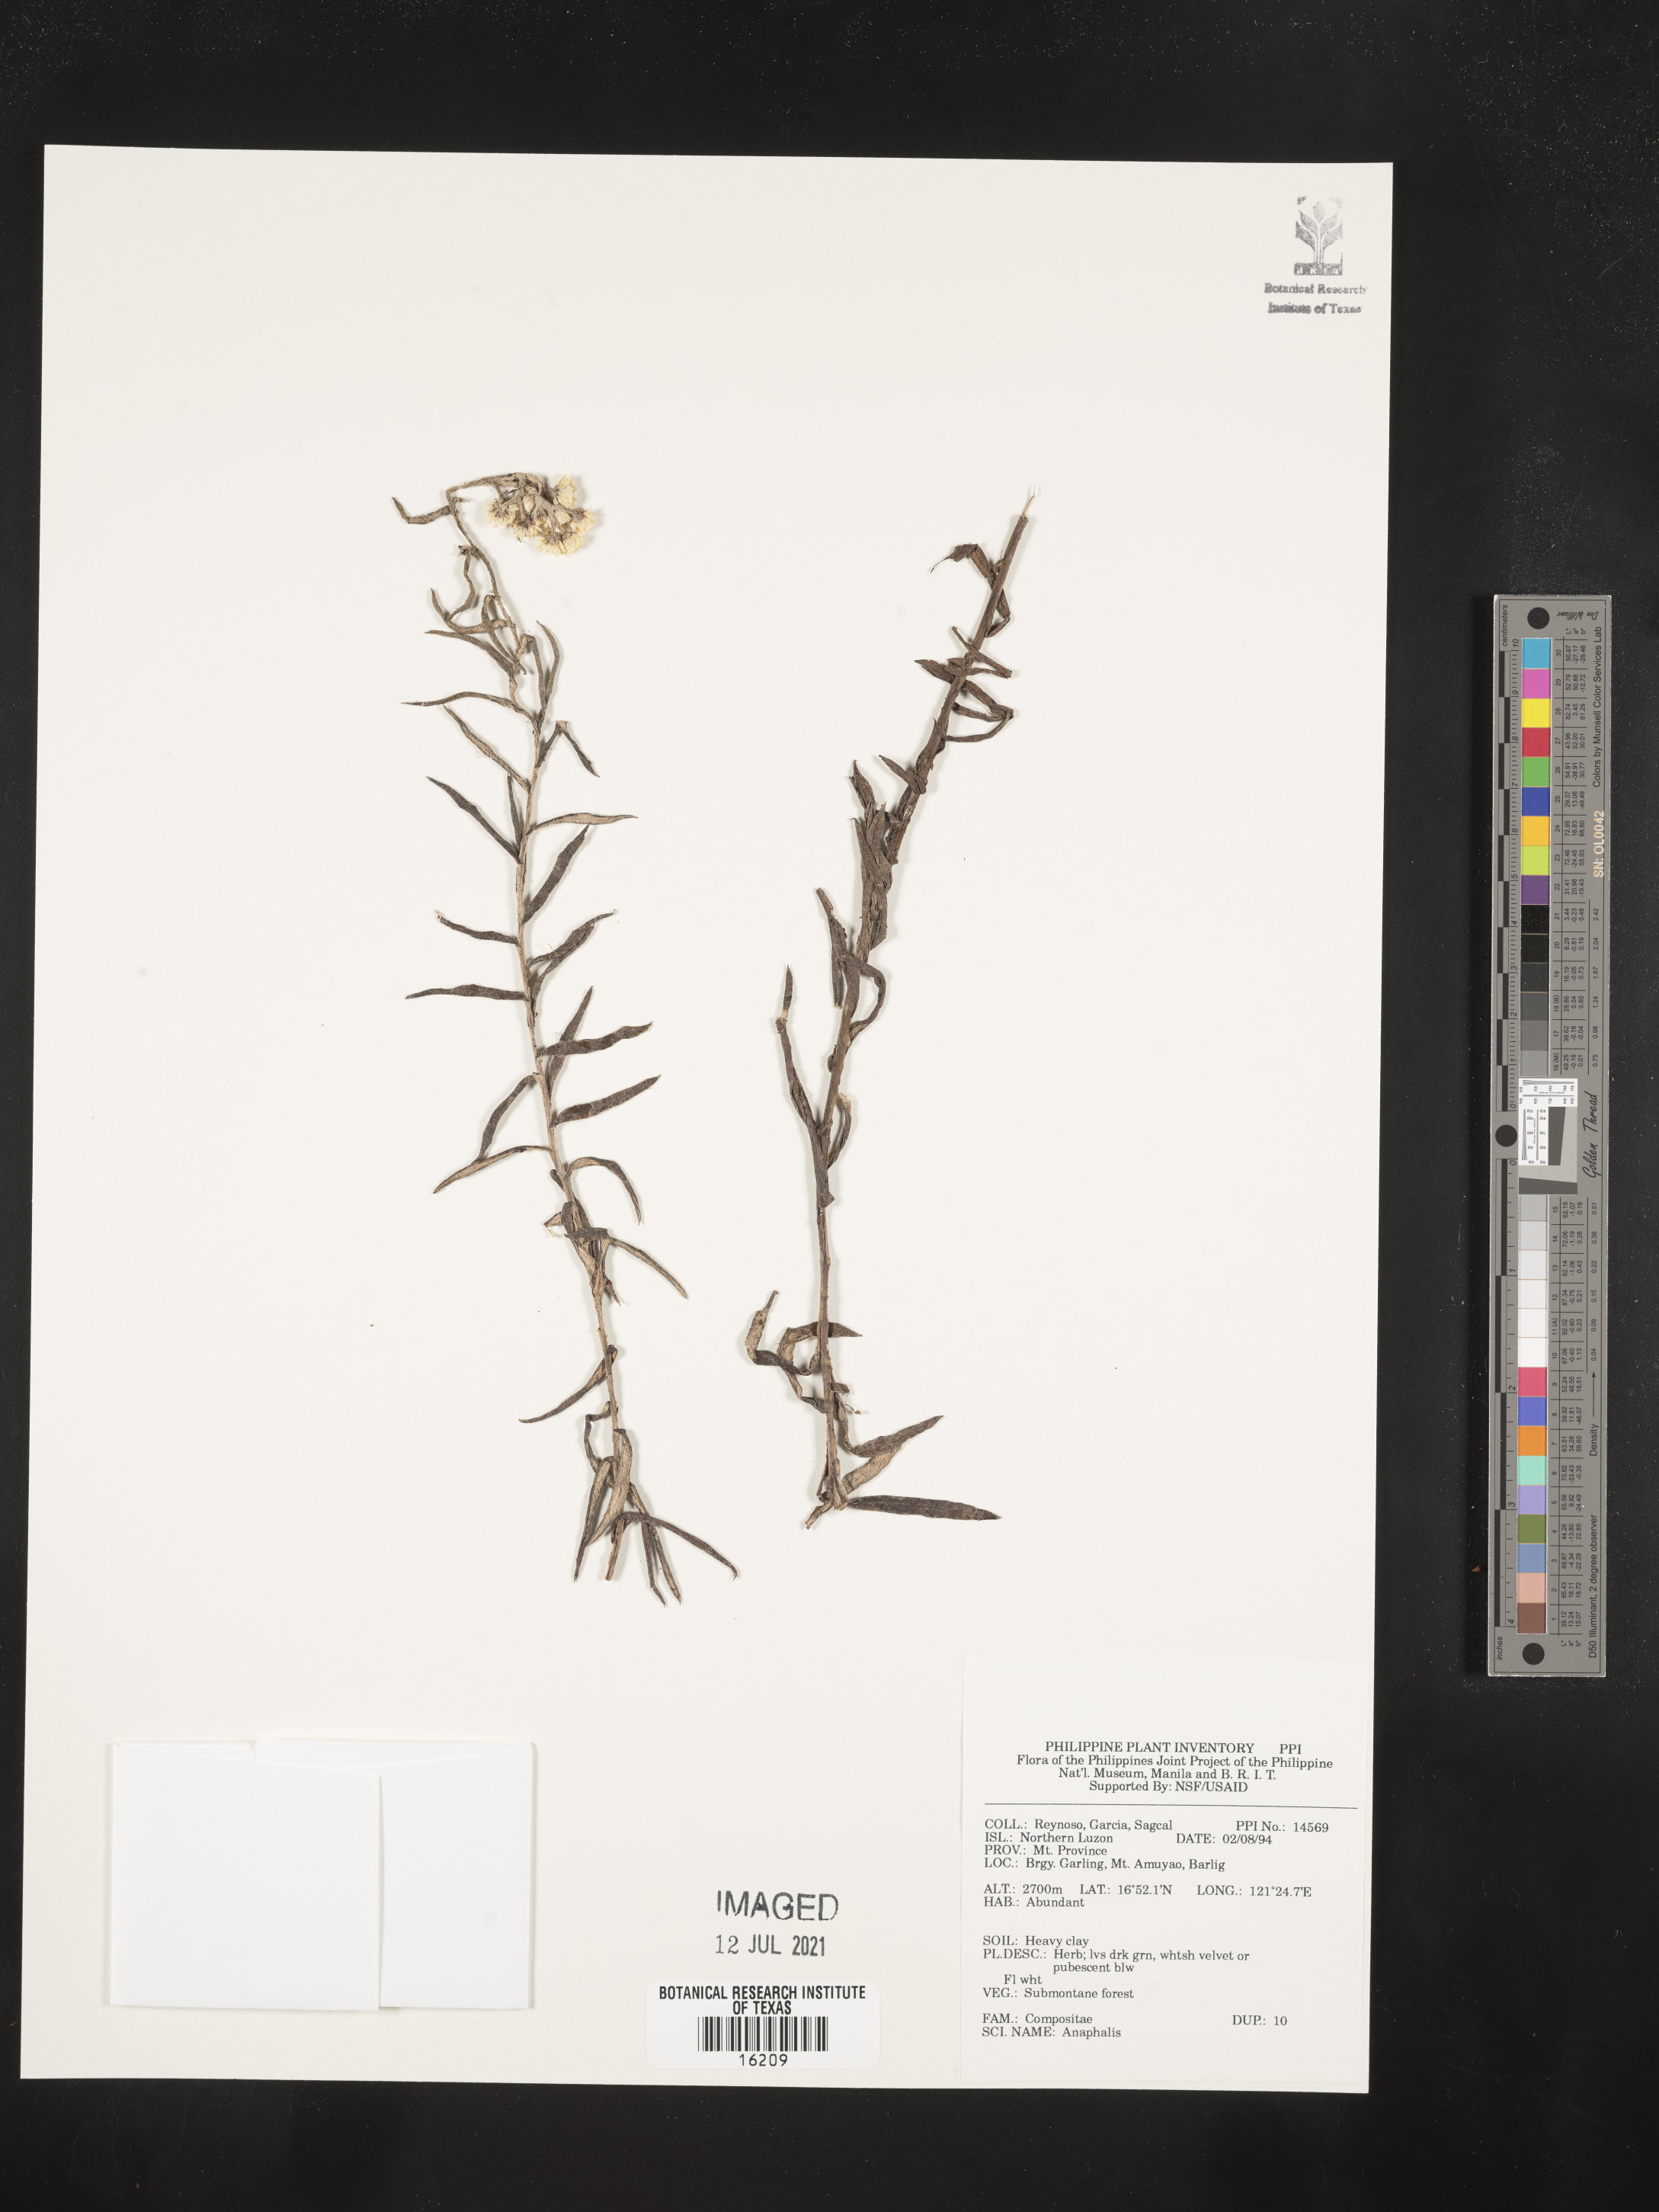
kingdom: Plantae
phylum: Tracheophyta
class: Magnoliopsida
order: Asterales
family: Asteraceae
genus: Anaphalis
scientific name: Anaphalis
